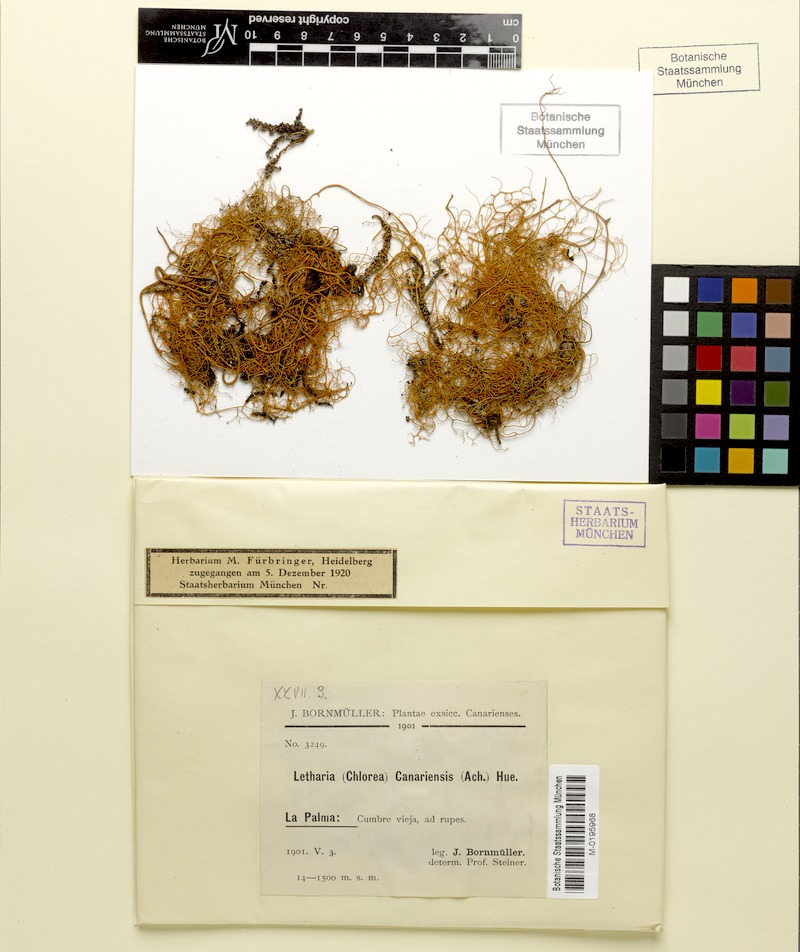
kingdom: Fungi
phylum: Ascomycota
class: Lecanoromycetes
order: Lecanorales
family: Parmeliaceae
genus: Lethariella
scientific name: Lethariella canariensis
